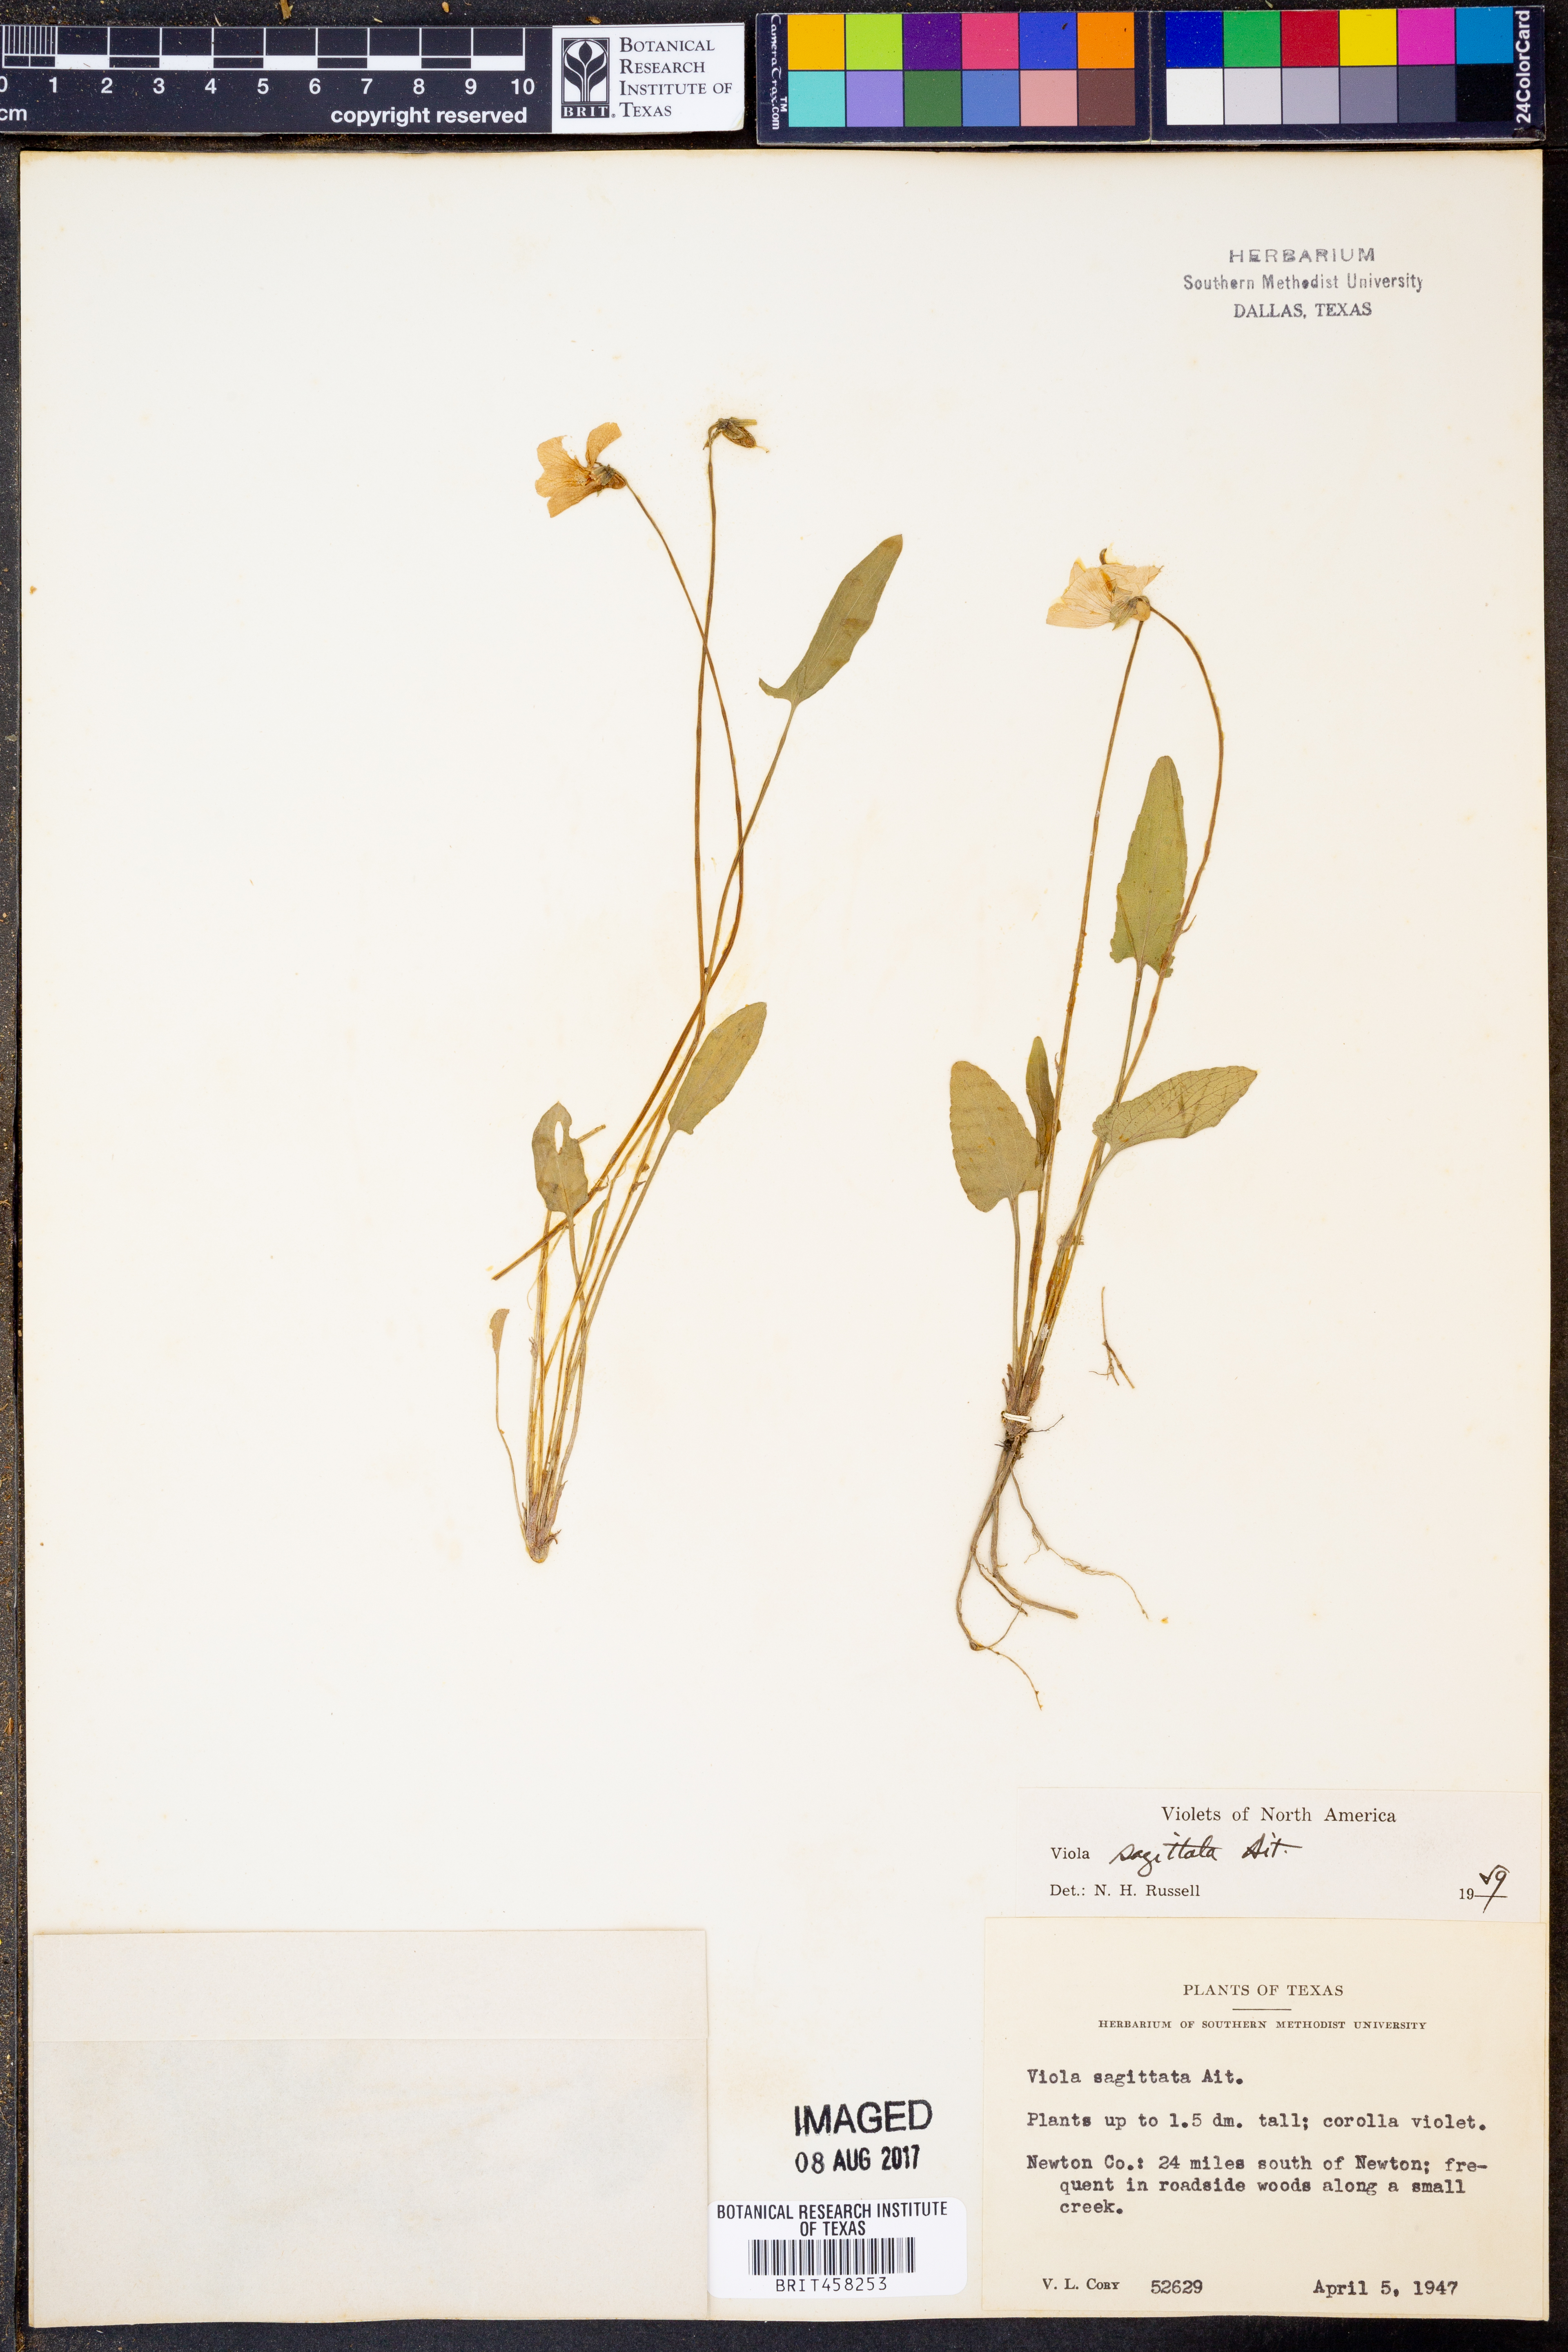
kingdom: Plantae
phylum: Tracheophyta
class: Magnoliopsida
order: Malpighiales
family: Violaceae
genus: Viola
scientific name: Viola sagittata
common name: Arrowhead violet
